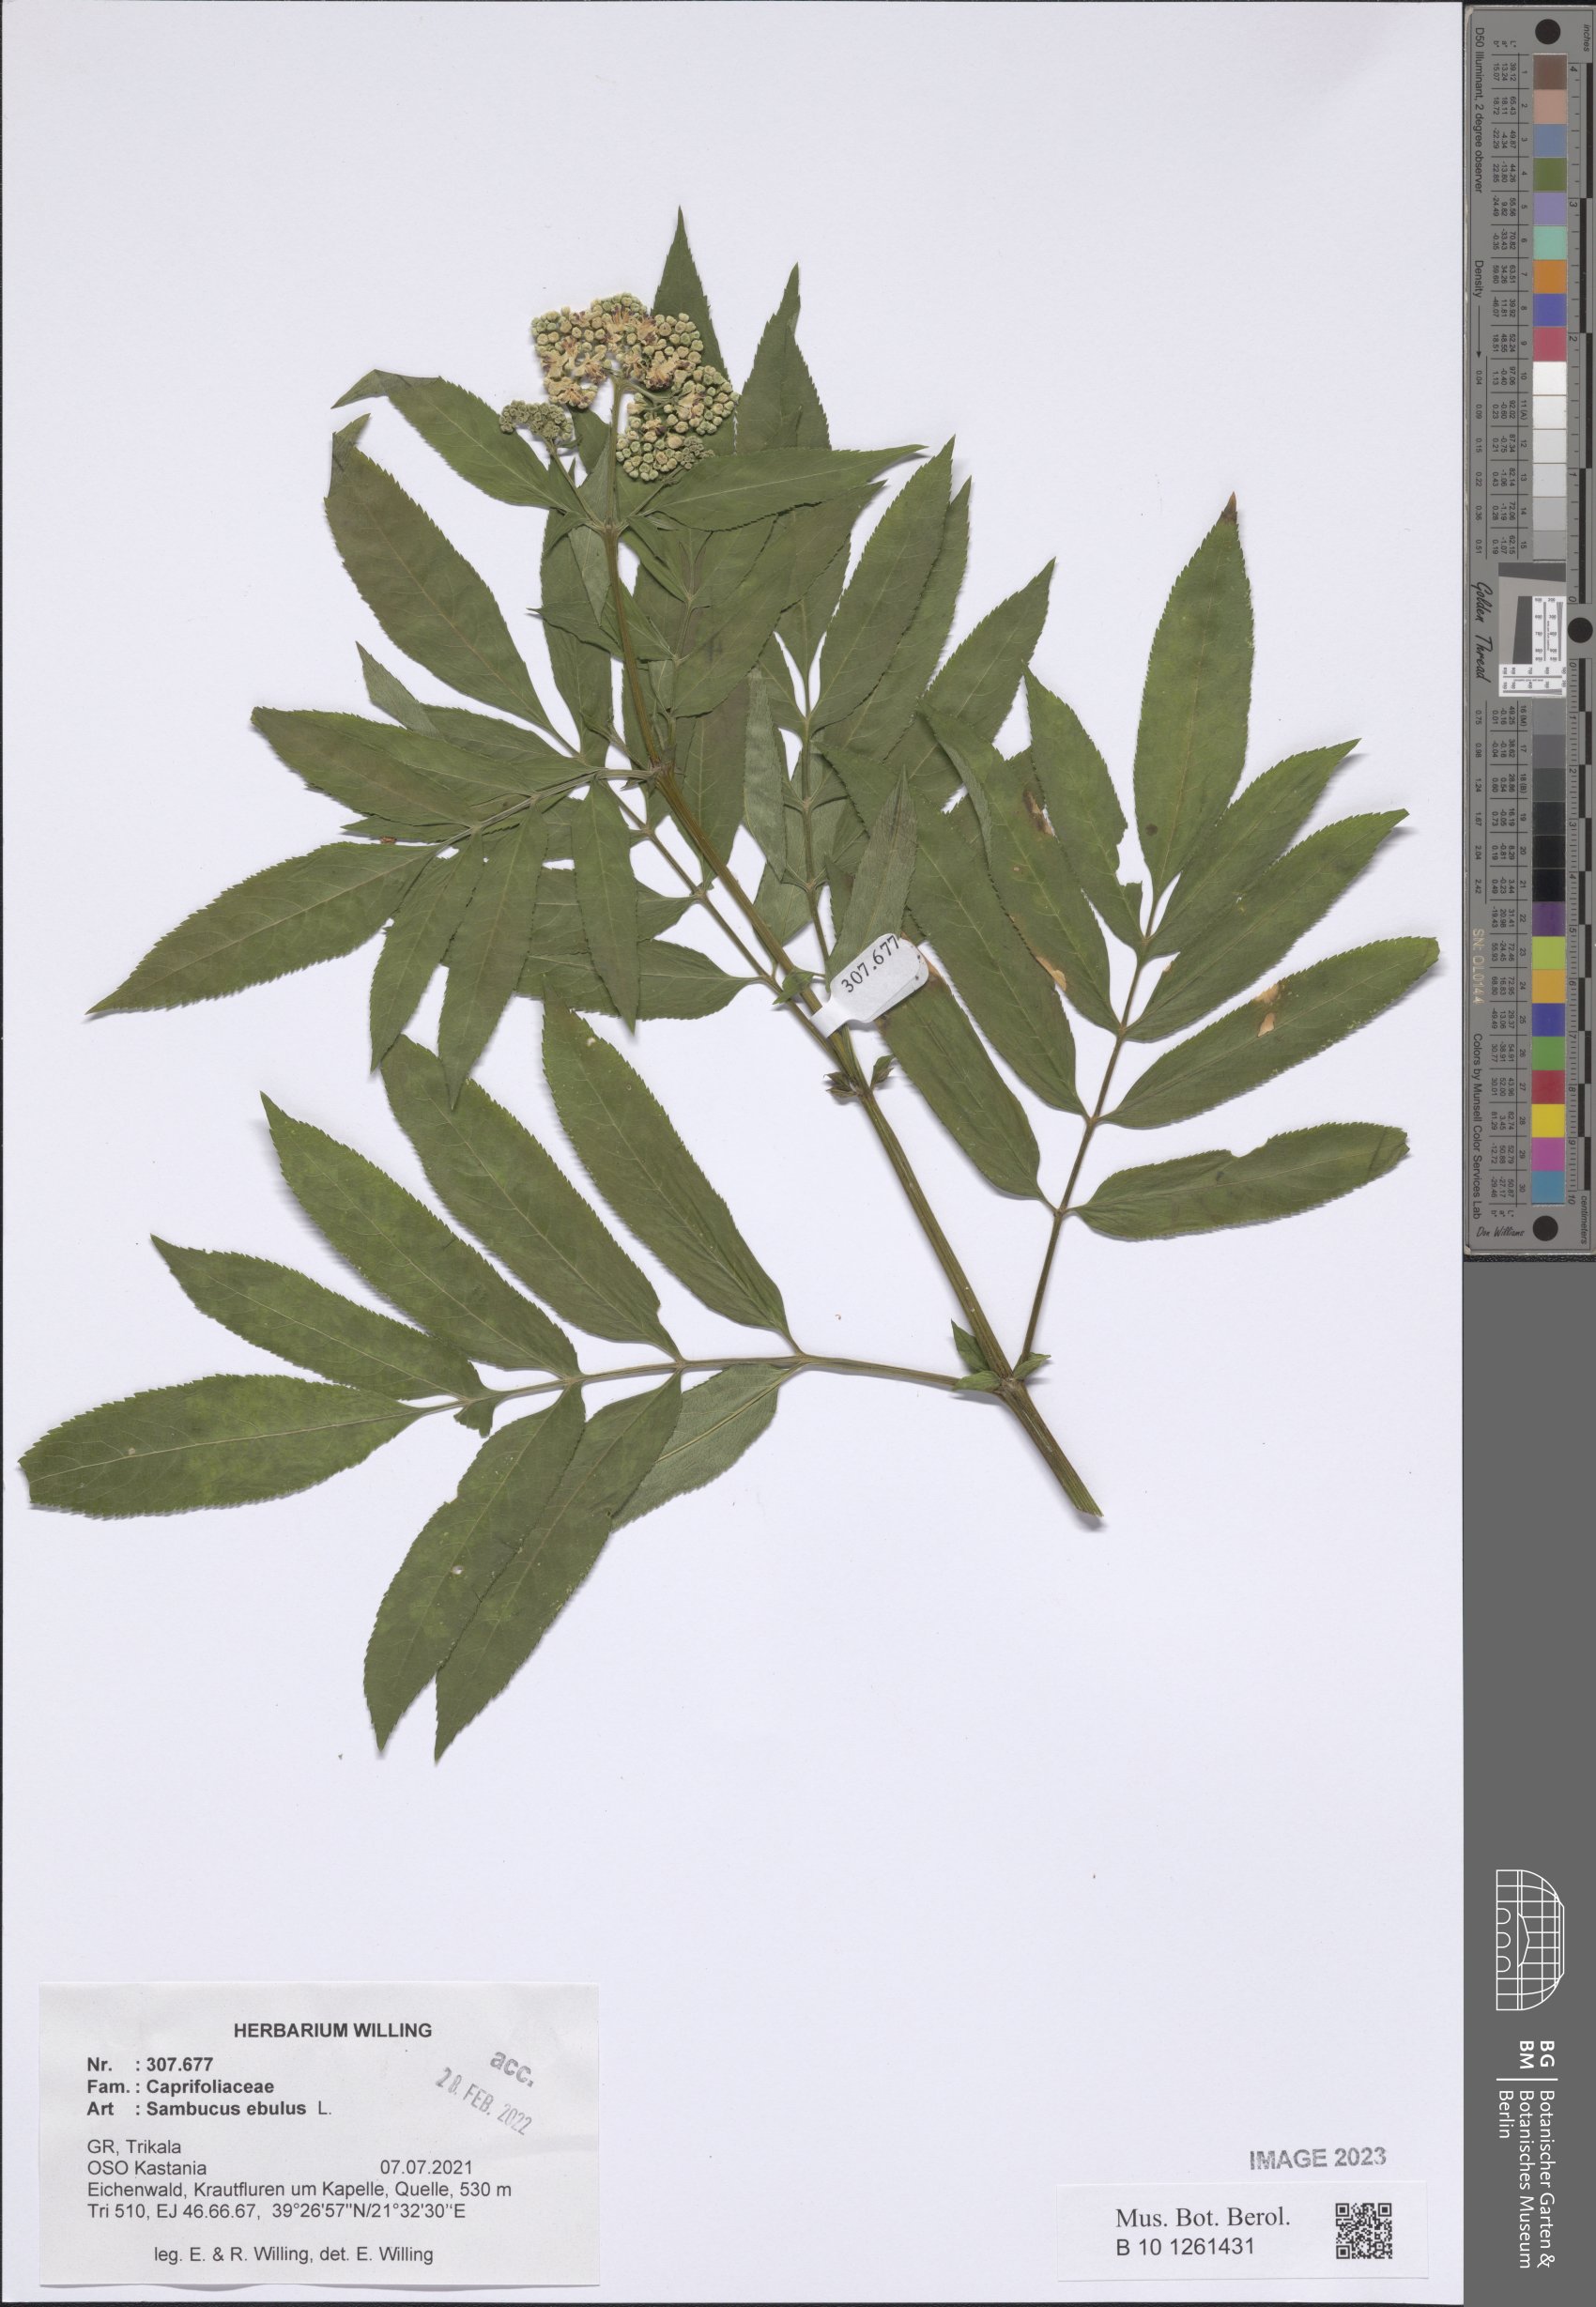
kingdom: Plantae
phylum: Tracheophyta
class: Magnoliopsida
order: Dipsacales
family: Viburnaceae
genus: Sambucus
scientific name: Sambucus ebulus
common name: Dwarf elder
